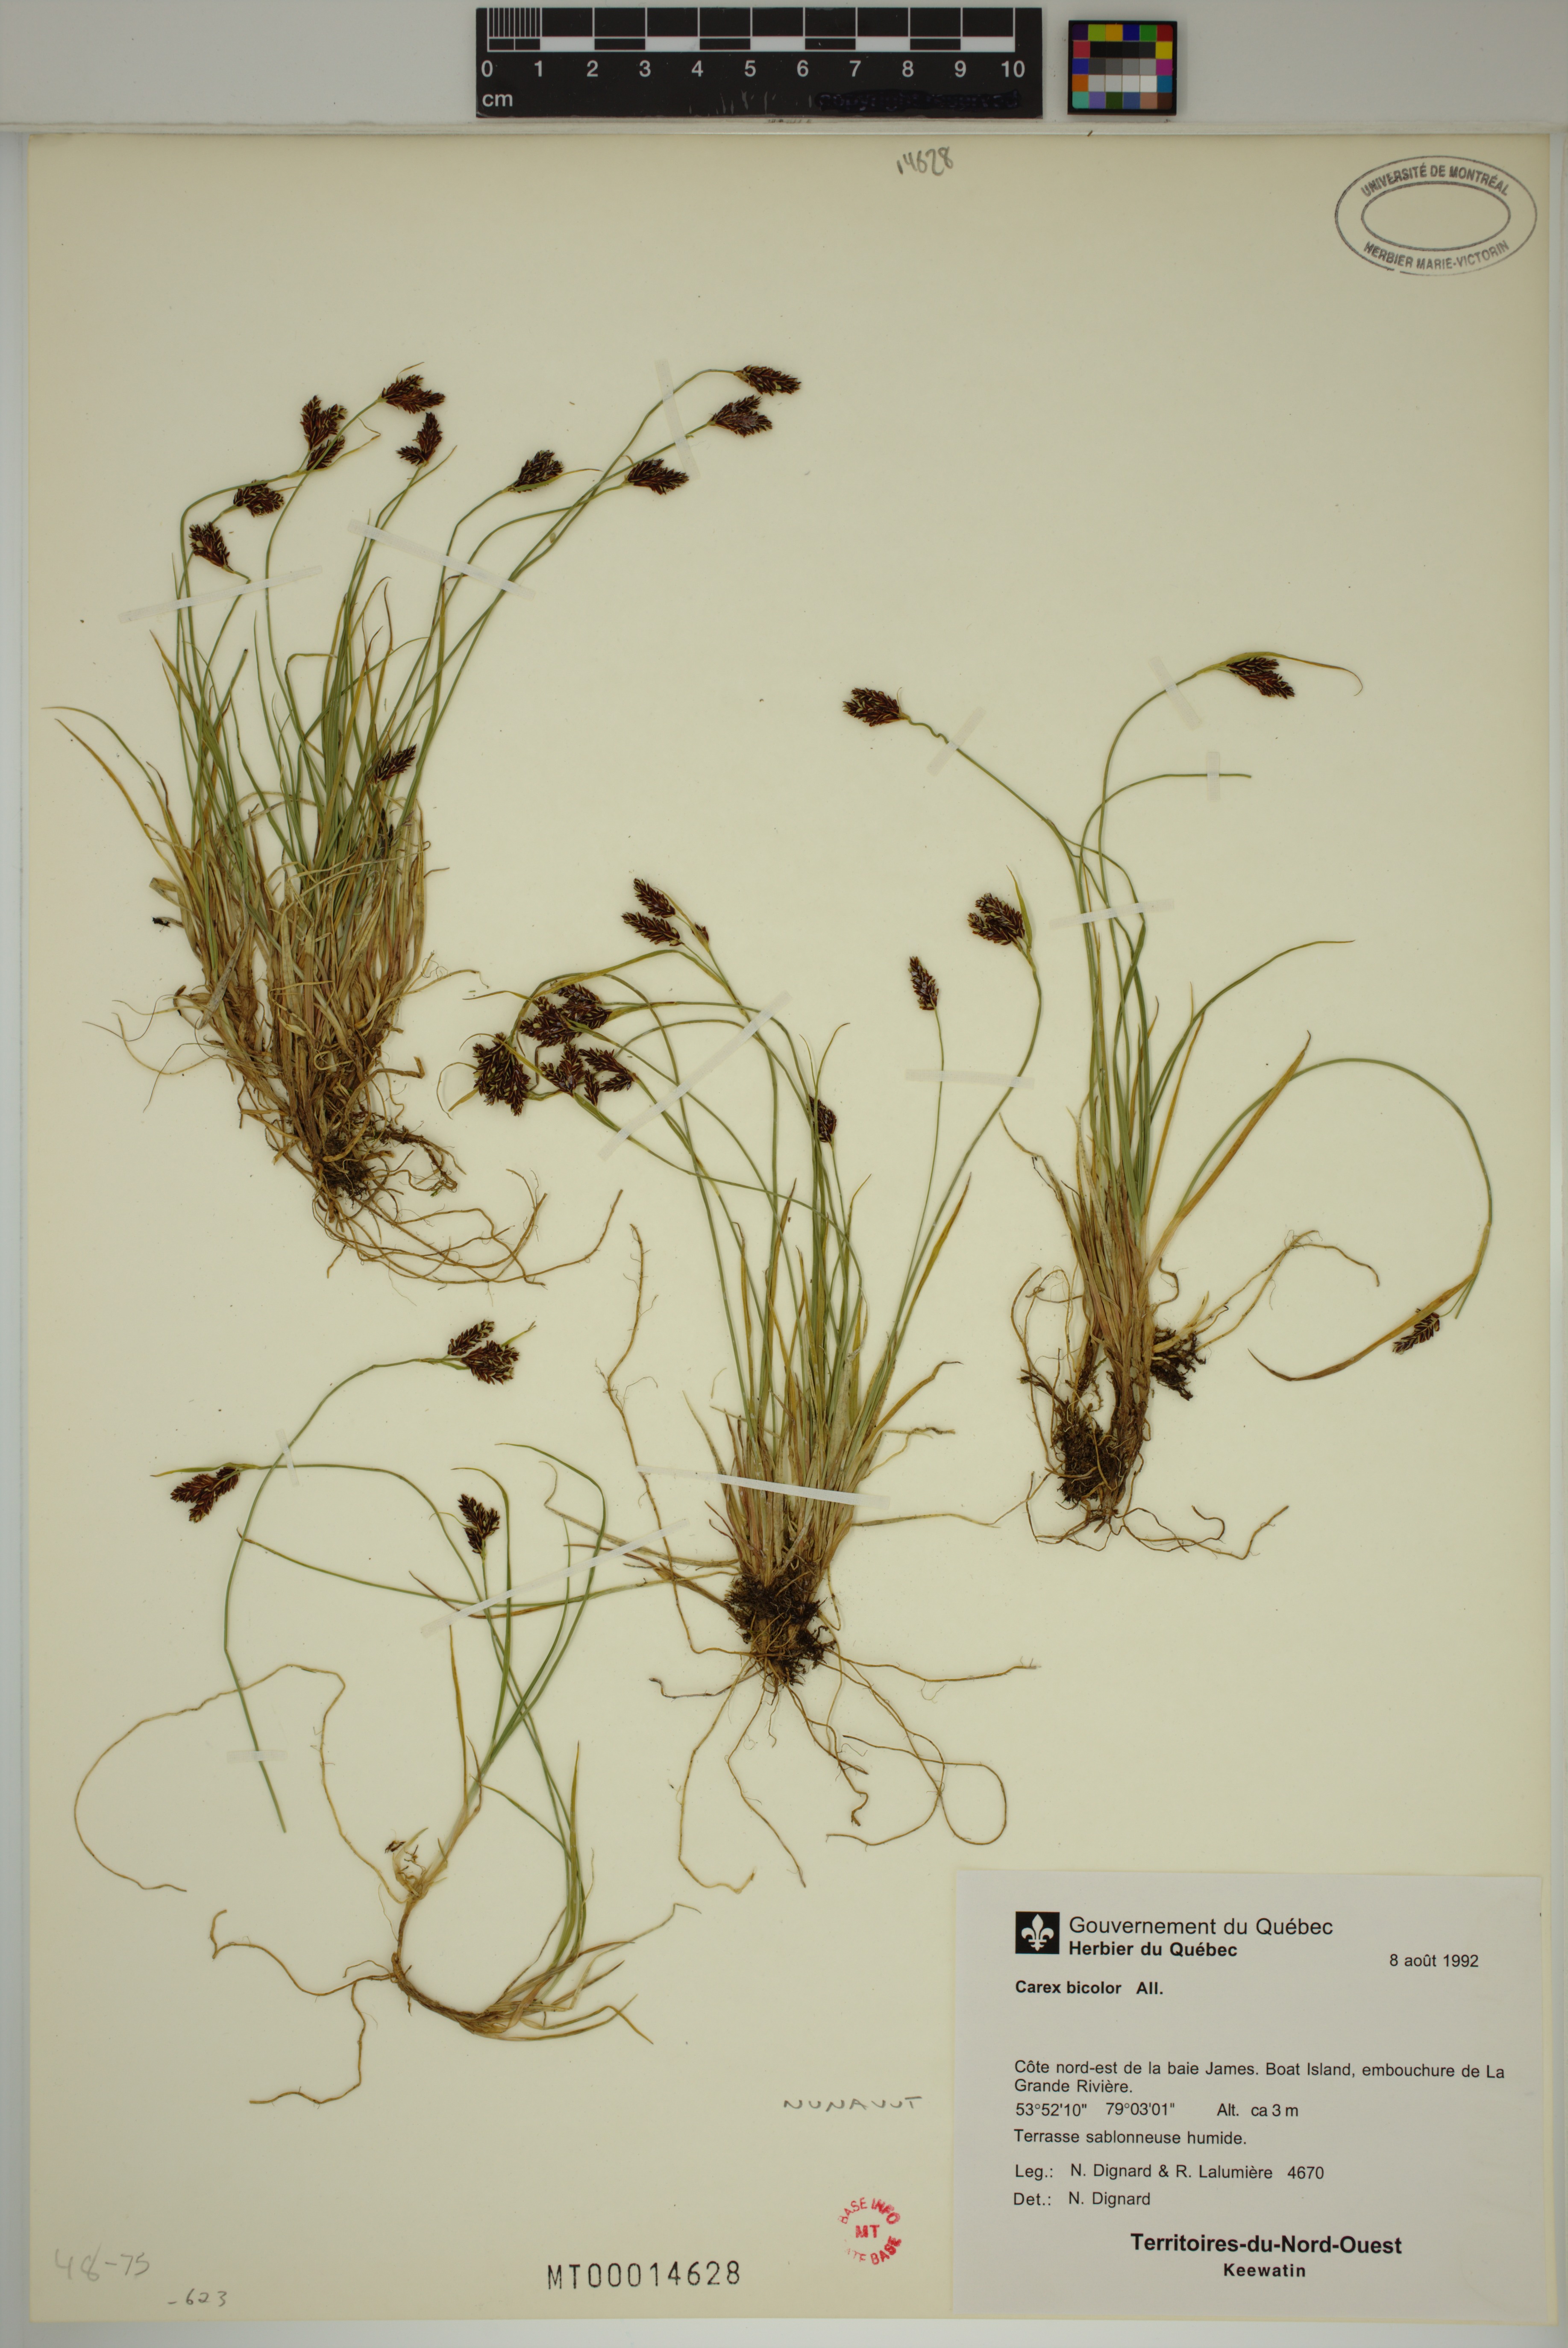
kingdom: Plantae
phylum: Tracheophyta
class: Liliopsida
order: Poales
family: Cyperaceae
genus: Carex
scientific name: Carex bicolor
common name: Bicoloured sedge
